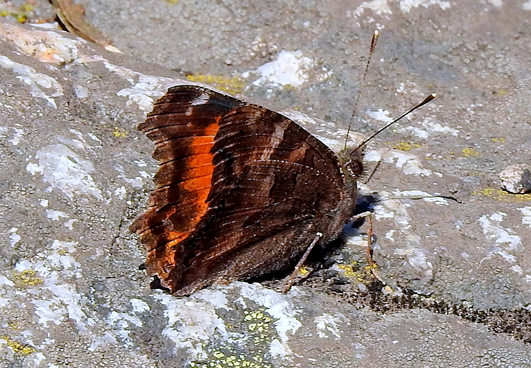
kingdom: Animalia
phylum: Arthropoda
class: Insecta
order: Lepidoptera
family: Nymphalidae
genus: Nymphalis
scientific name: Nymphalis californica
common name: California Tortoiseshell
